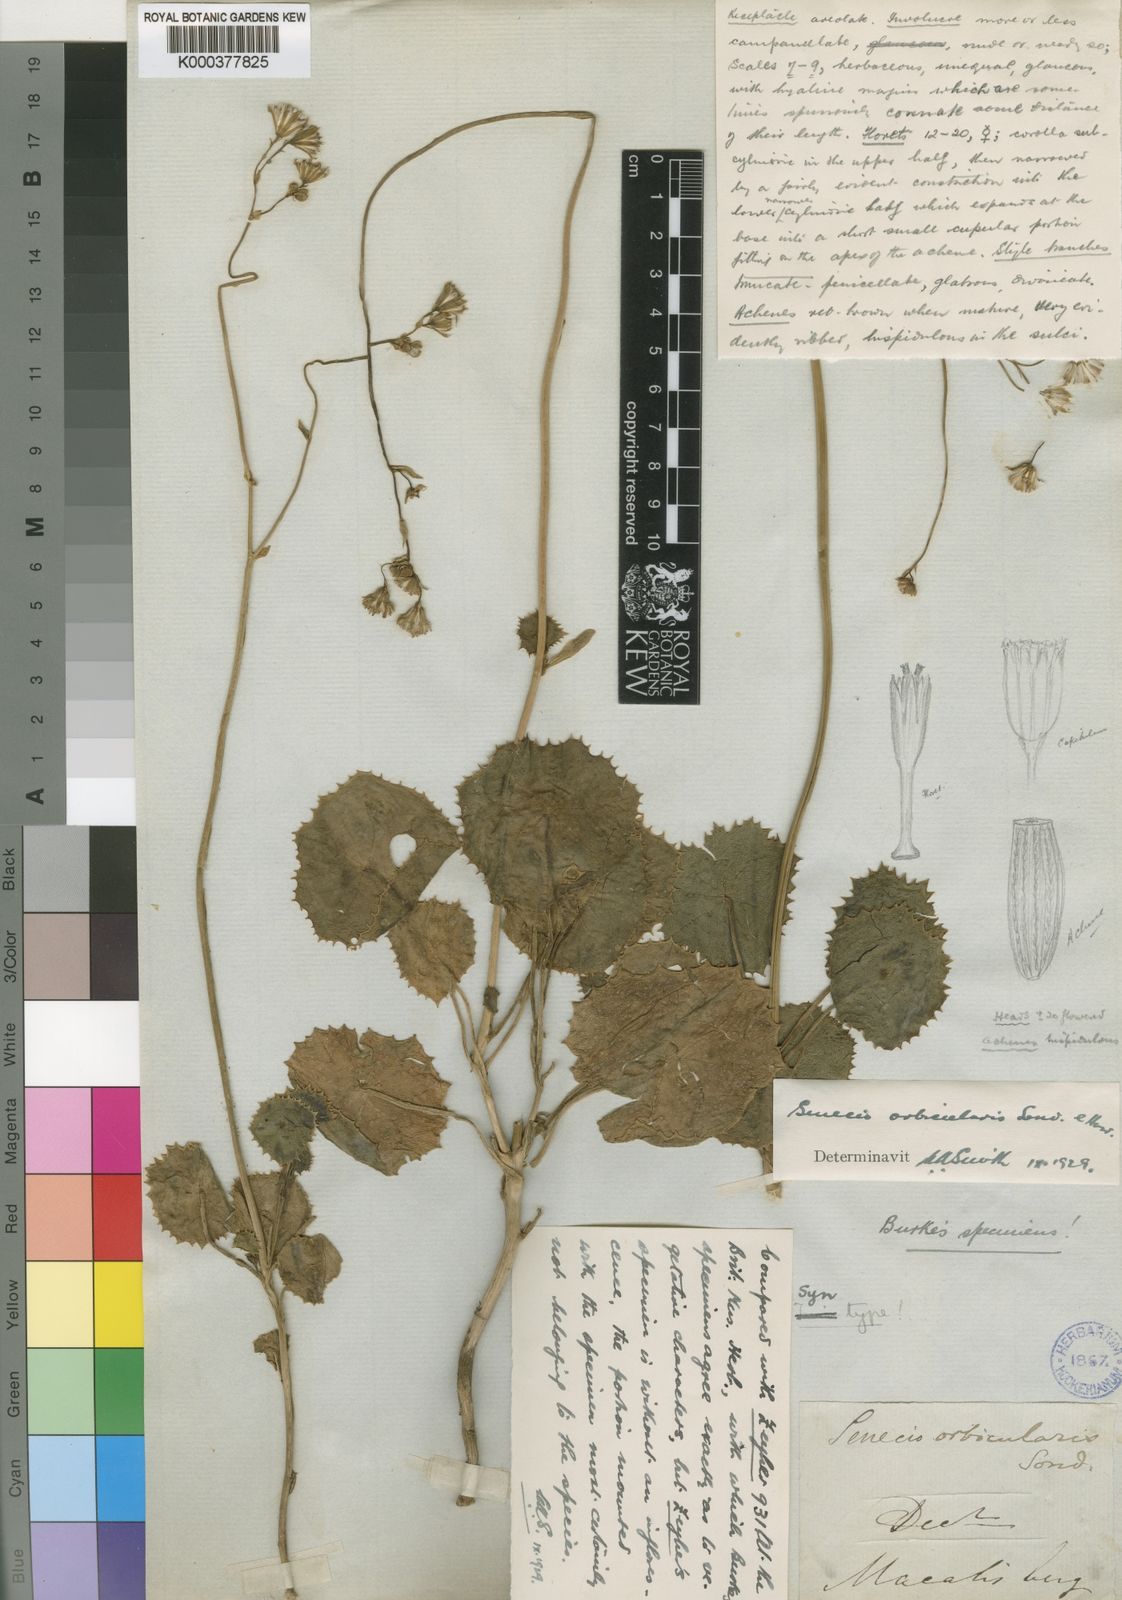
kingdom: Plantae
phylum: Tracheophyta
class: Magnoliopsida
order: Asterales
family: Asteraceae
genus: Senecio
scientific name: Senecio oxyriifolius
